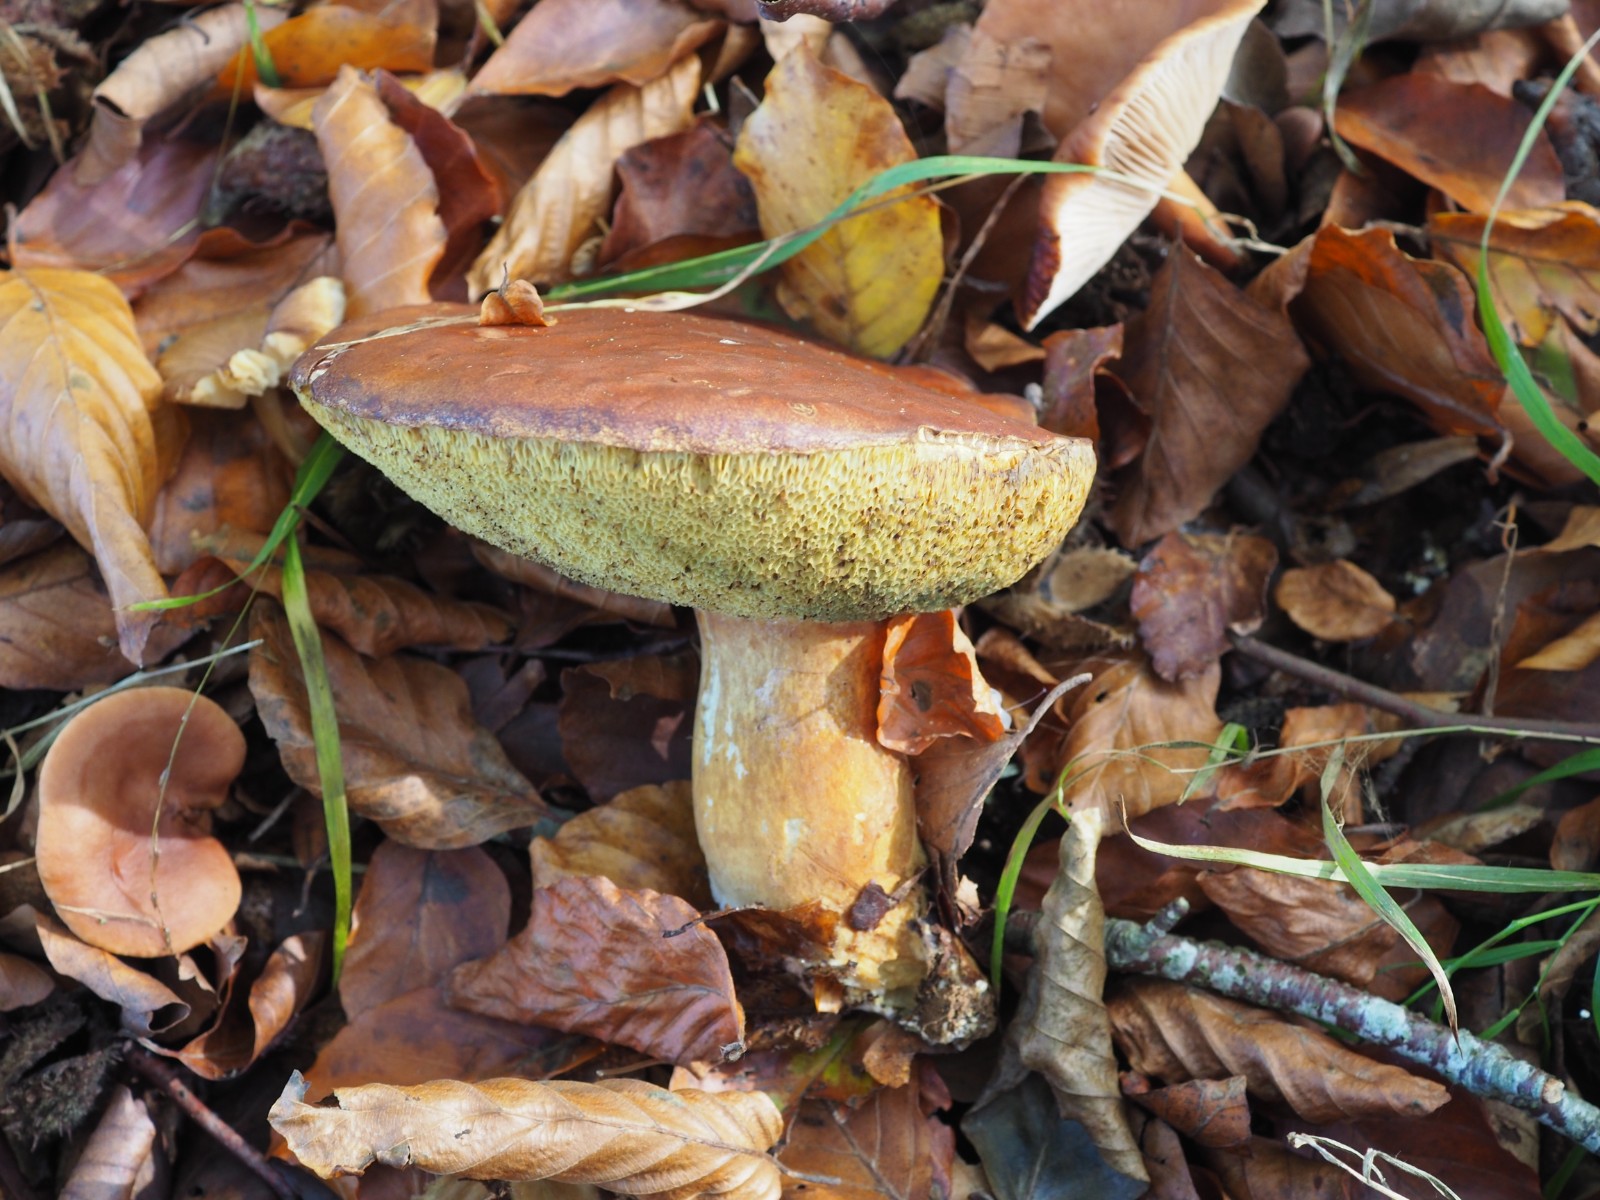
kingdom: Fungi
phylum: Basidiomycota
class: Agaricomycetes
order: Boletales
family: Boletaceae
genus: Imleria
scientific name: Imleria badia
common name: brunstokket rørhat
